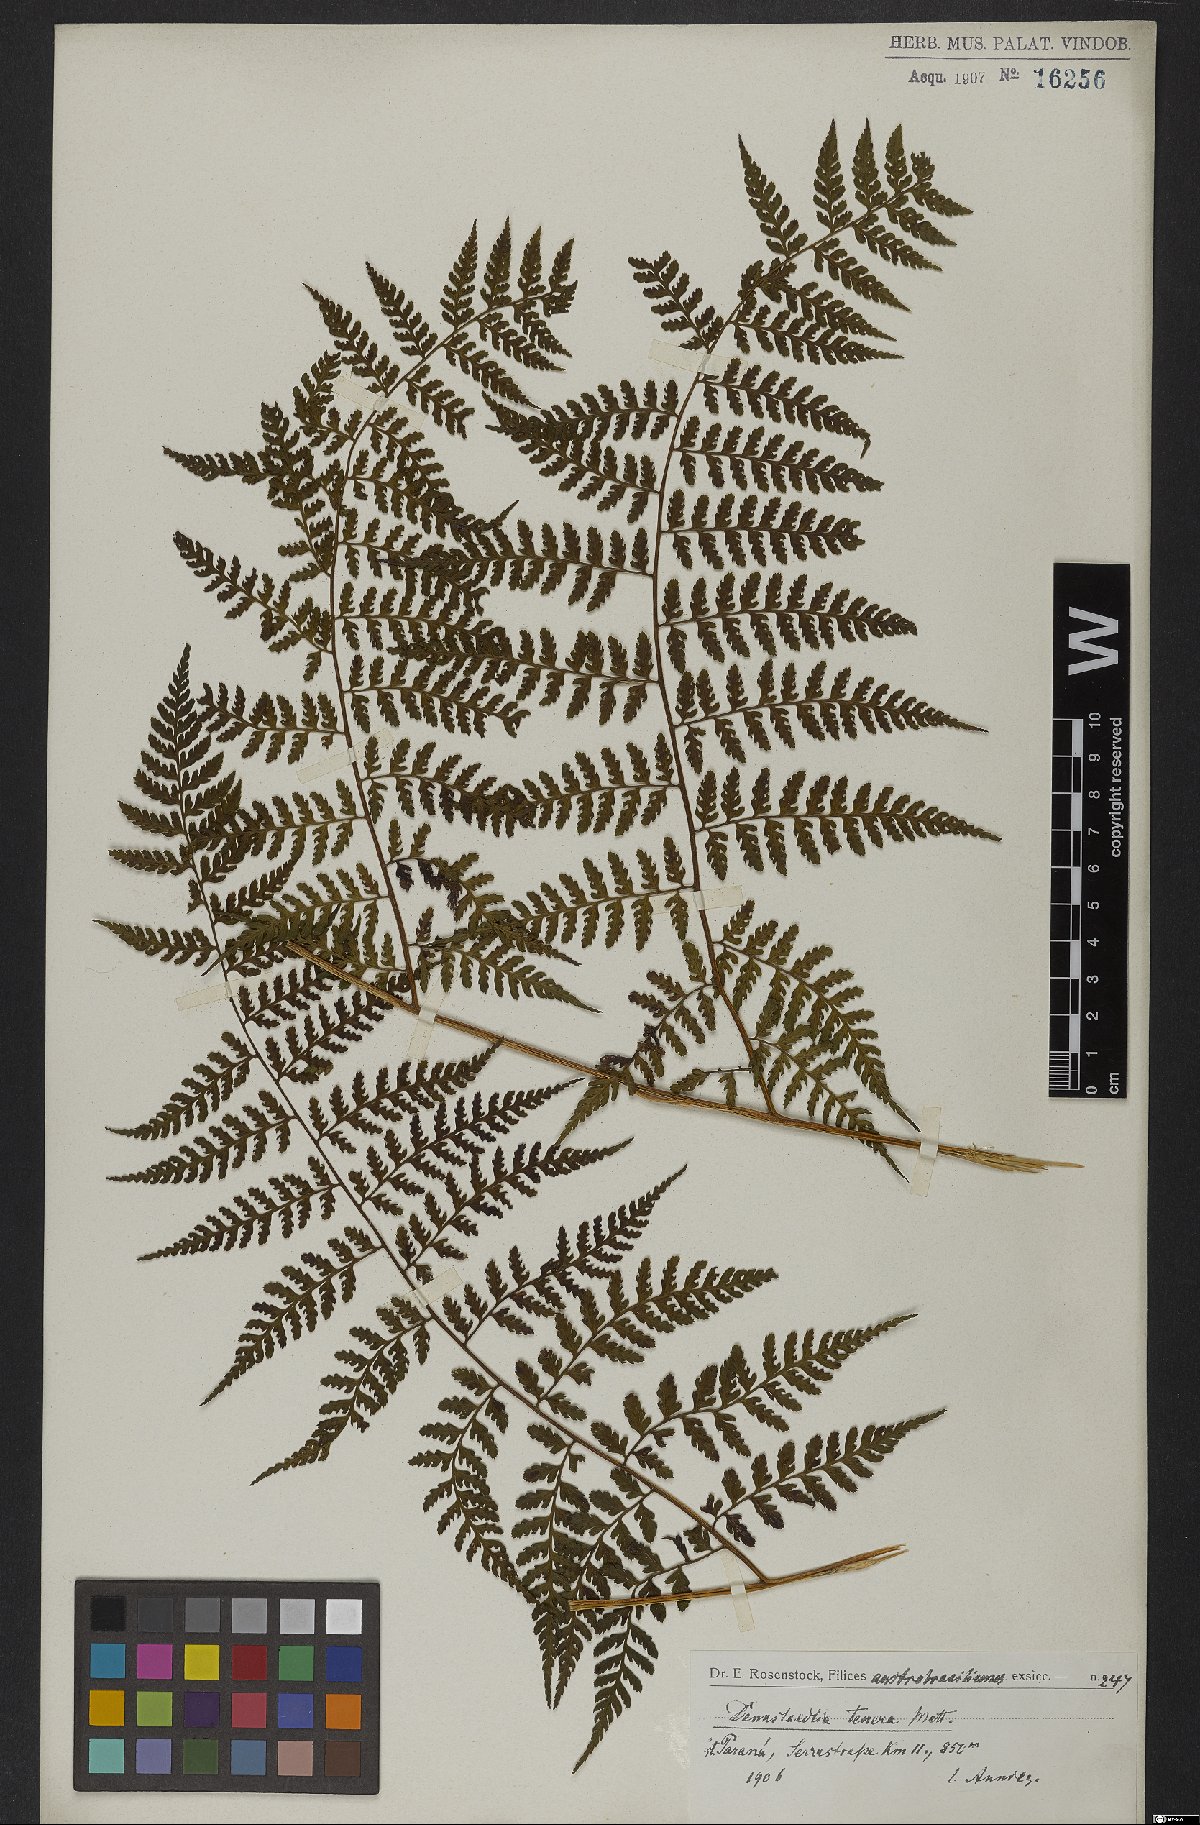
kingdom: Plantae
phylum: Tracheophyta
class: Polypodiopsida
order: Polypodiales
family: Dennstaedtiaceae
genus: Mucura
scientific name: Mucura globulifera
